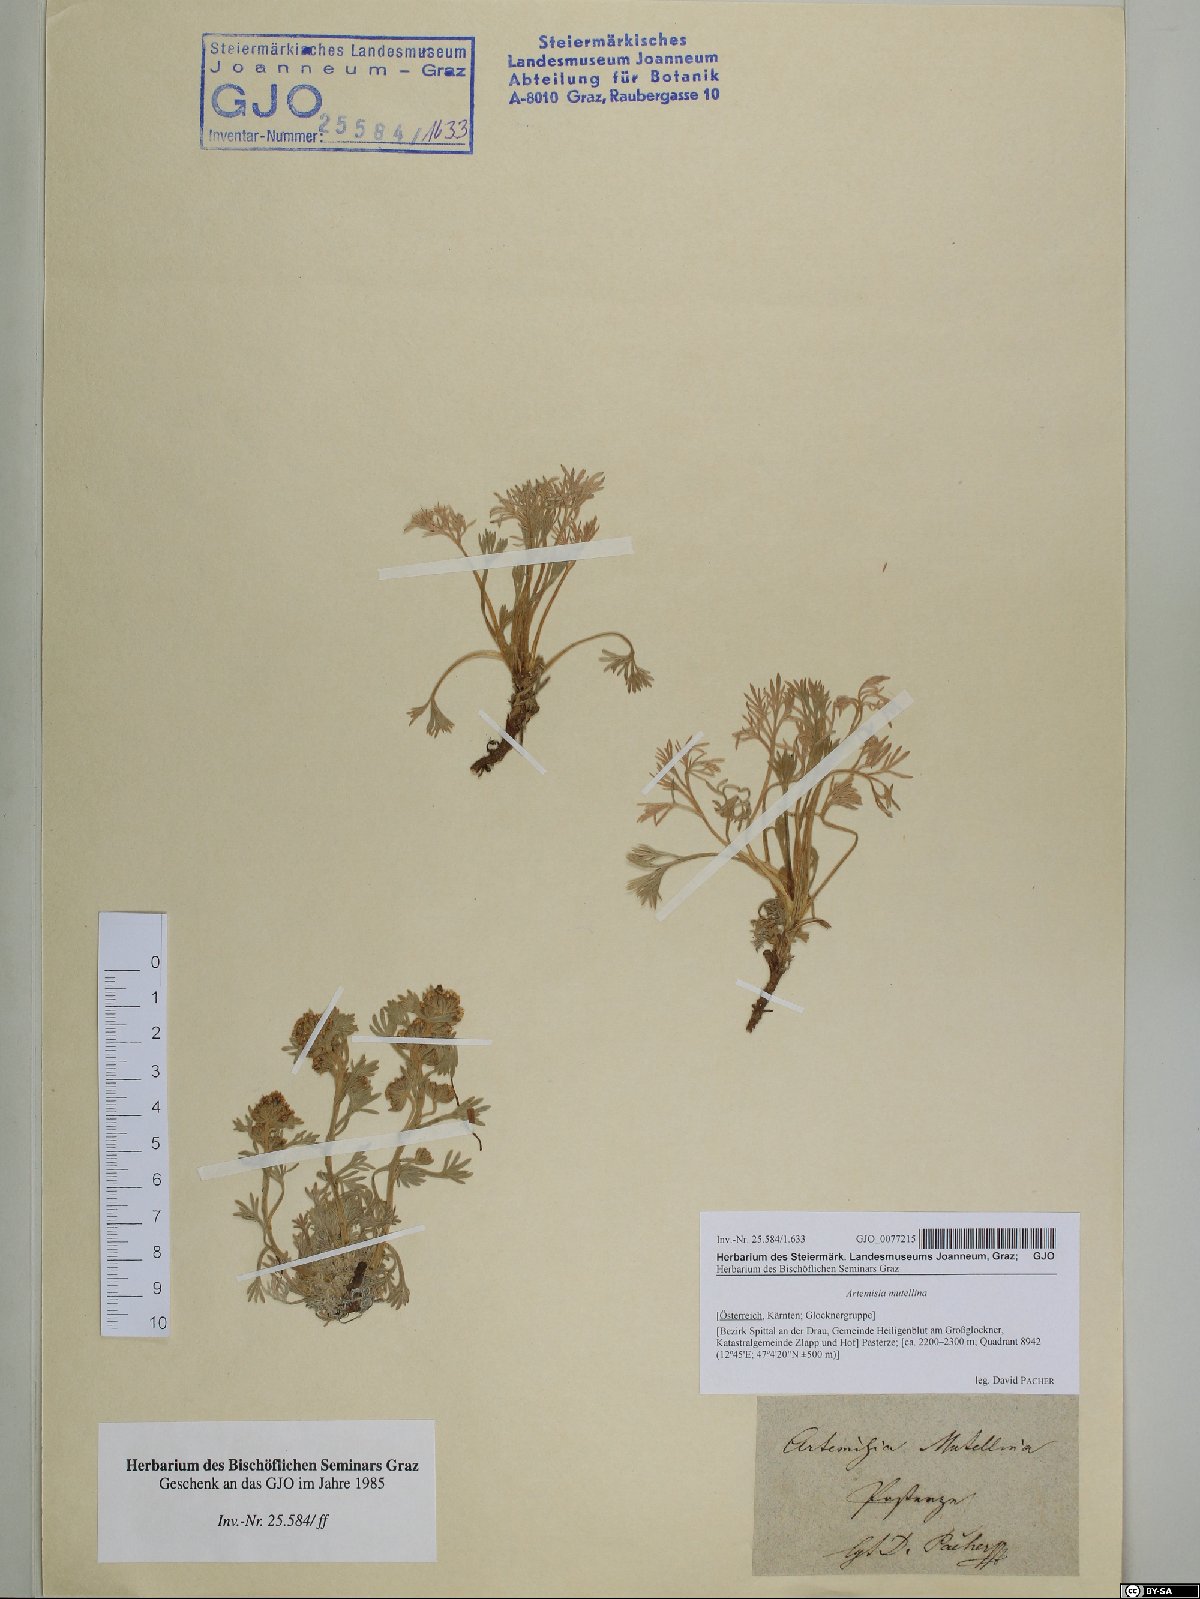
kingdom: Plantae
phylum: Tracheophyta
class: Magnoliopsida
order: Asterales
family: Asteraceae
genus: Artemisia
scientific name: Artemisia mutellina
